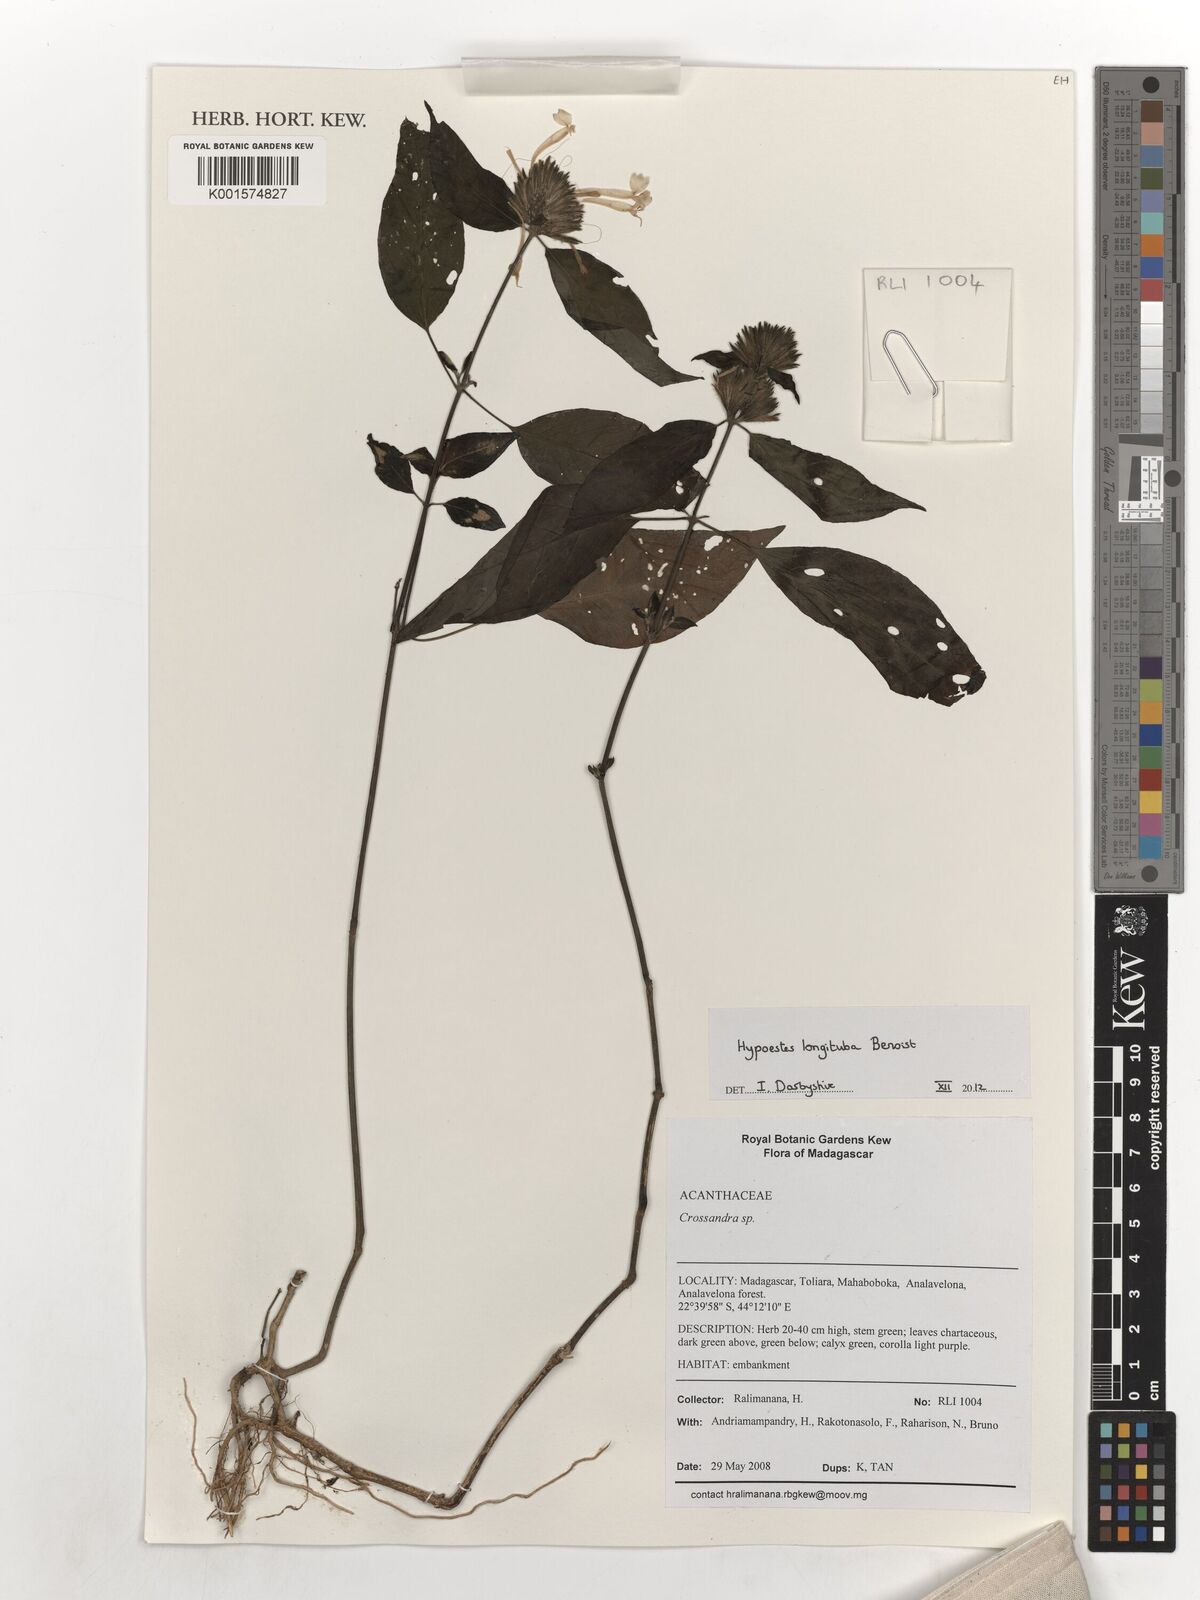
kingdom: Plantae
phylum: Tracheophyta
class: Magnoliopsida
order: Lamiales
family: Acanthaceae
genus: Hypoestes
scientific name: Hypoestes longituba
